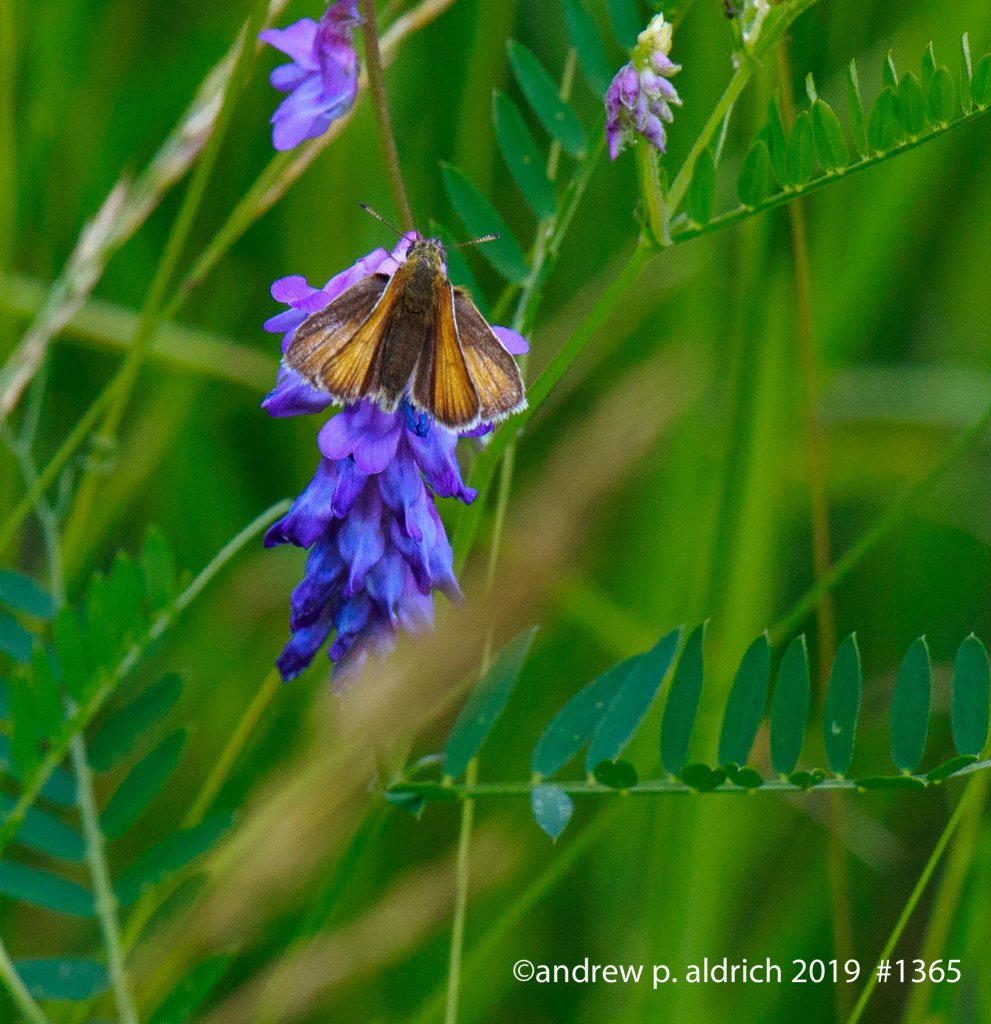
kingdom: Animalia
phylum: Arthropoda
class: Insecta
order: Lepidoptera
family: Hesperiidae
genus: Thymelicus
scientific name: Thymelicus lineola
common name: European Skipper
